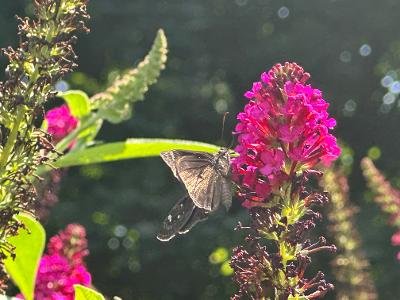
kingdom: Animalia
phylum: Arthropoda
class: Insecta
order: Lepidoptera
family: Hesperiidae
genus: Gesta
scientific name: Gesta
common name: Horace's Duskywing
